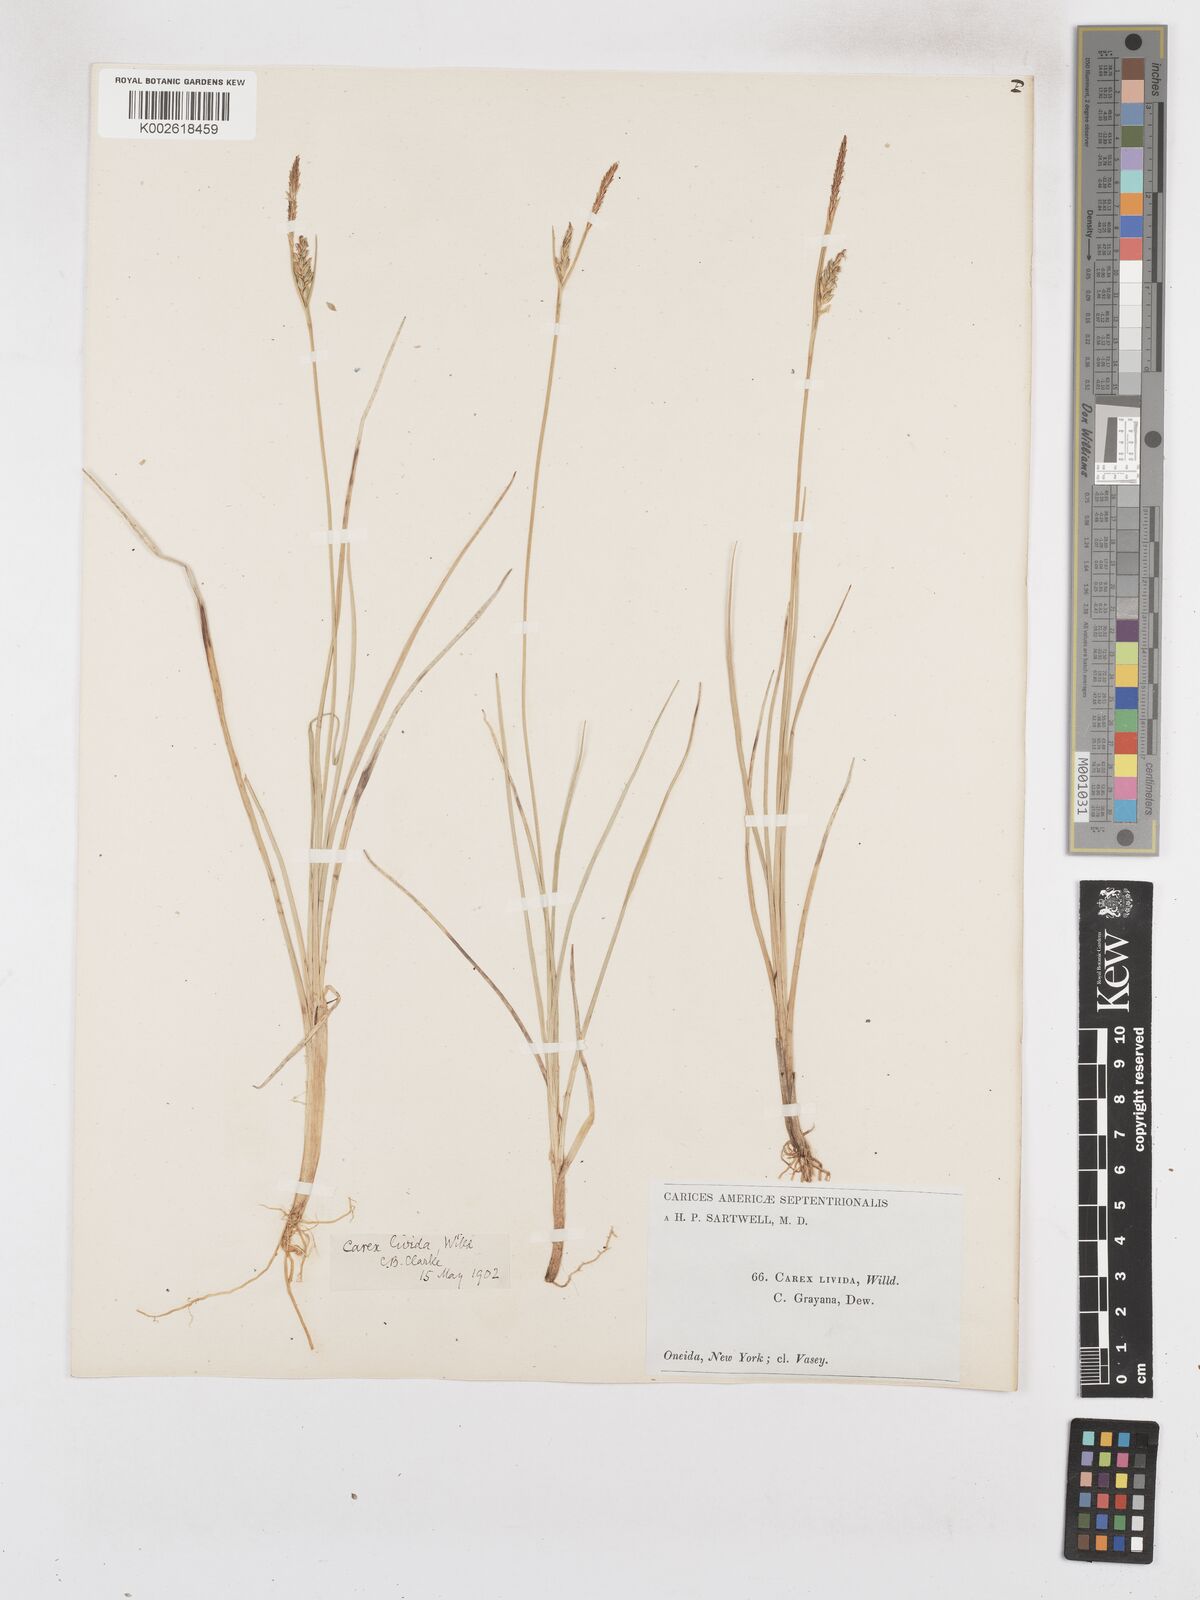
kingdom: Plantae
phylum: Tracheophyta
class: Liliopsida
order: Poales
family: Cyperaceae
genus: Carex
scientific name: Carex livida
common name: Livid sedge
